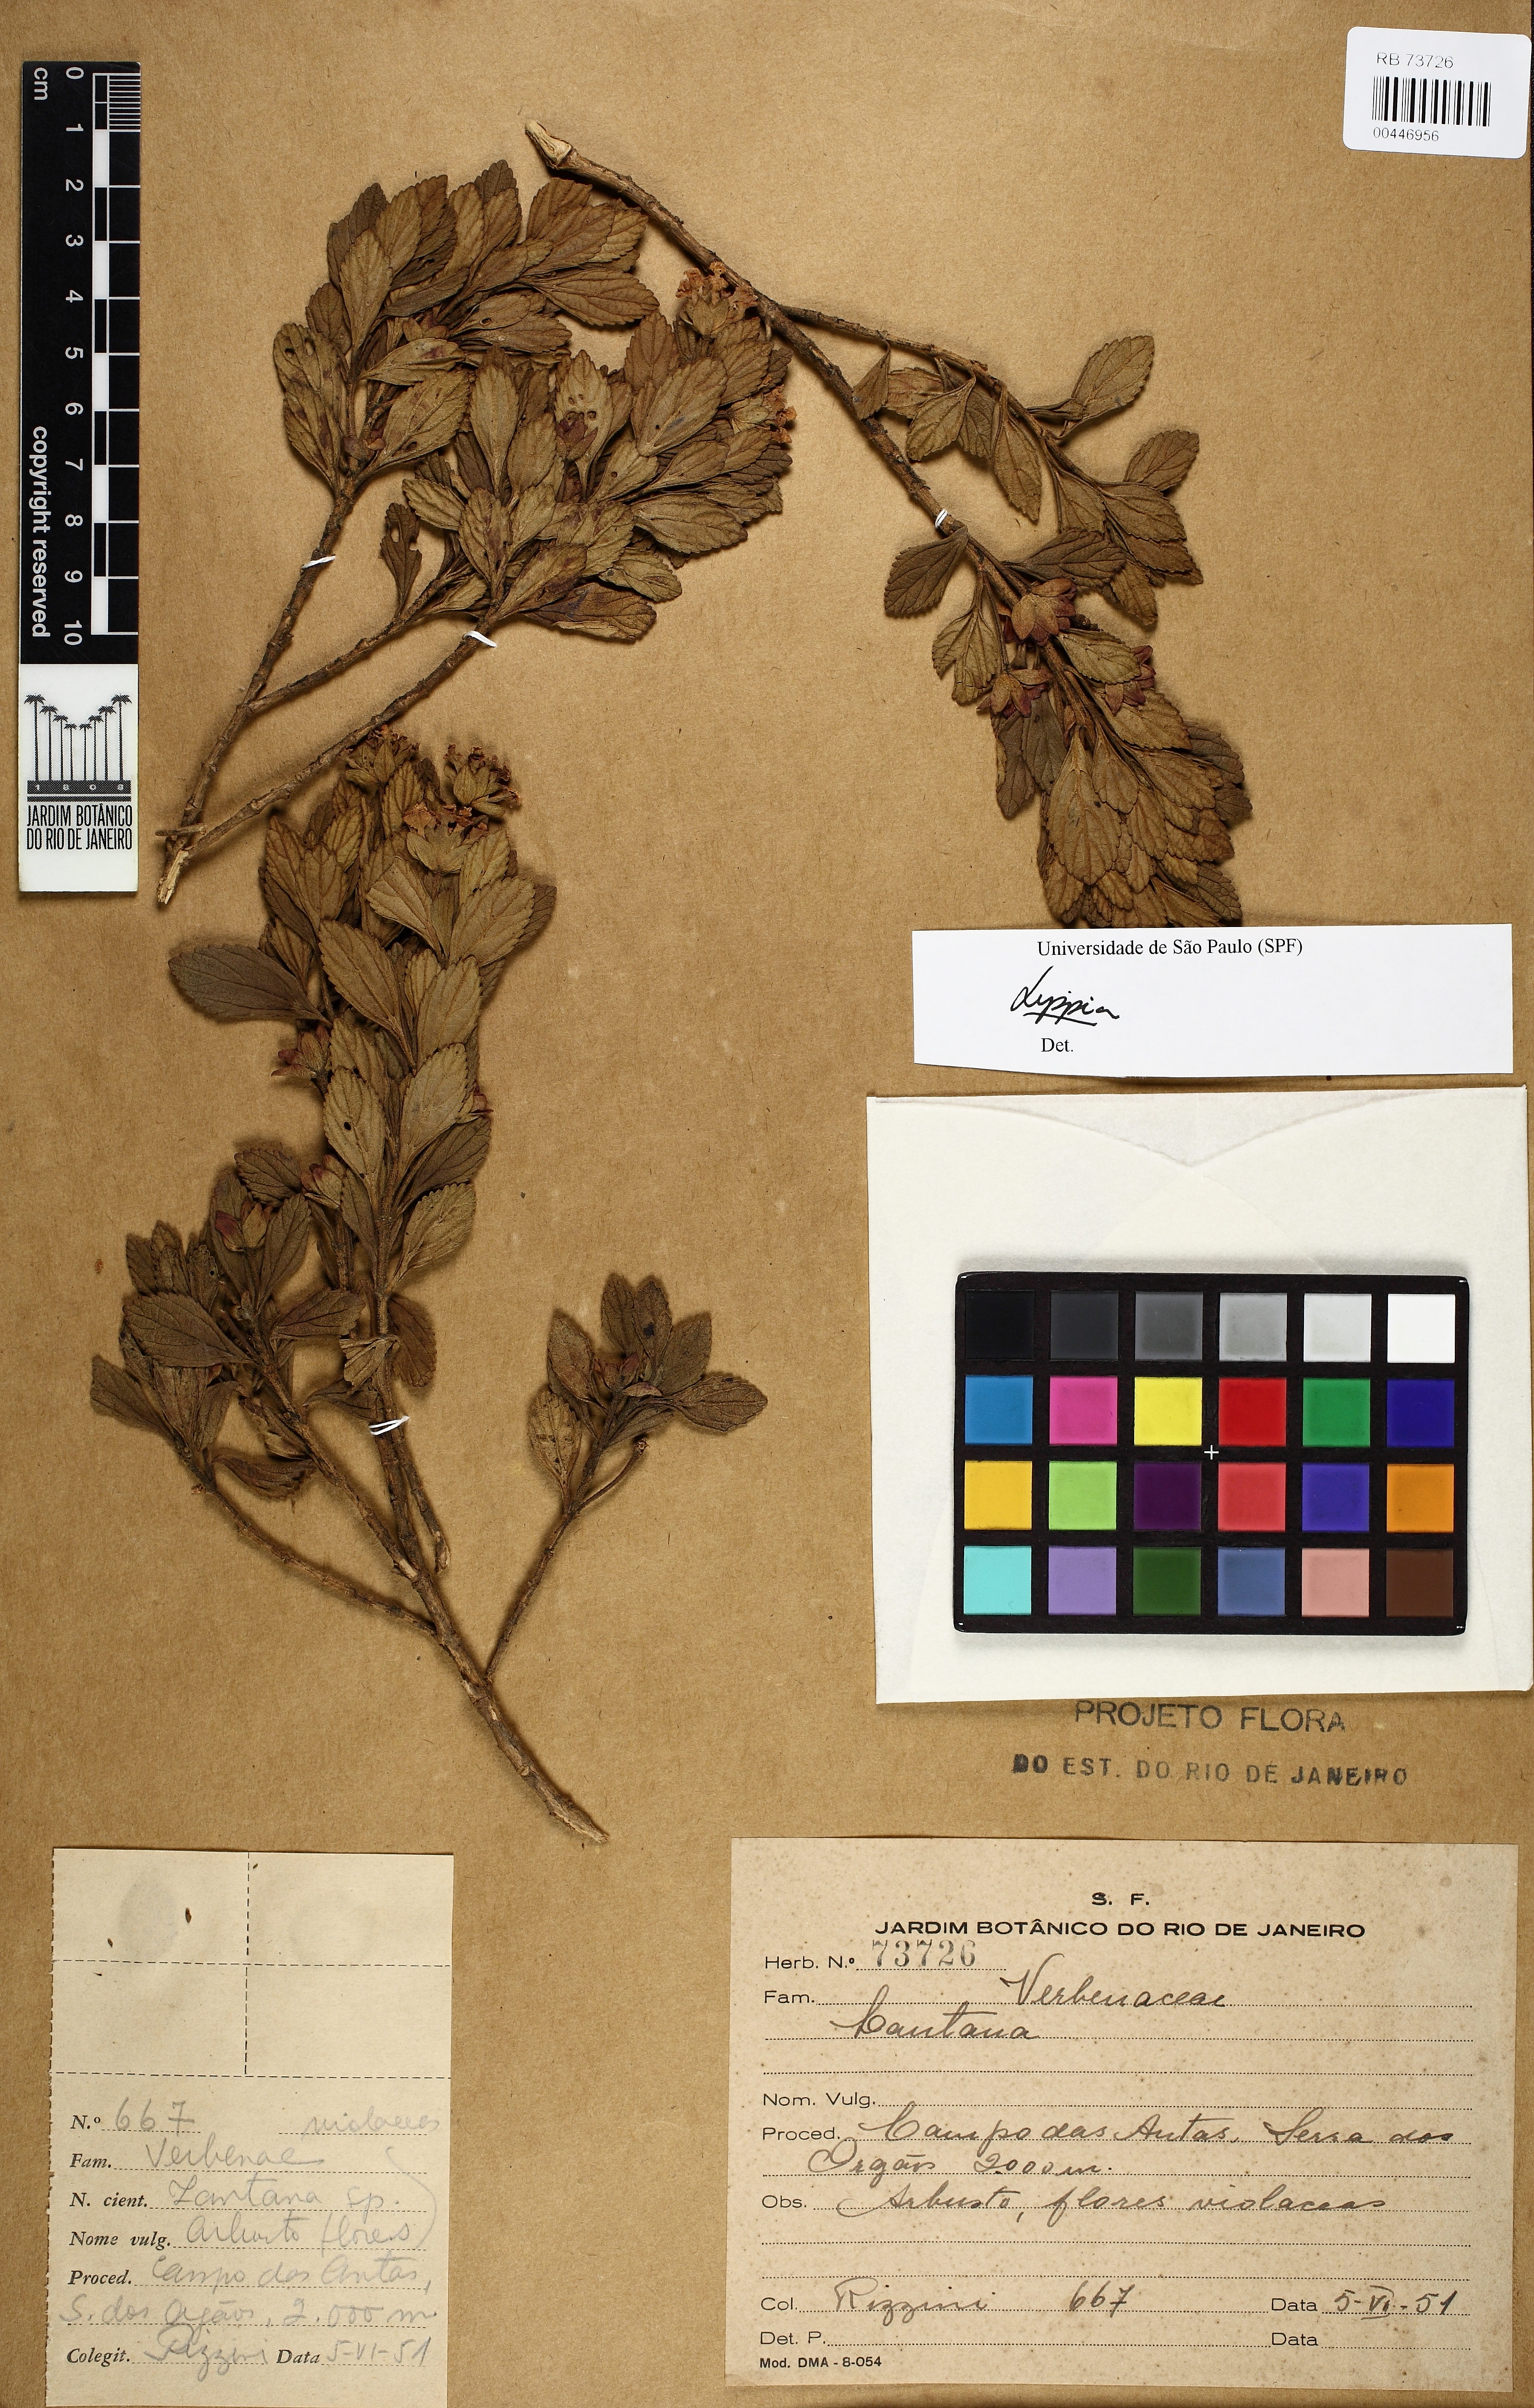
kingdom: Plantae
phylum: Tracheophyta
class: Magnoliopsida
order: Lamiales
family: Verbenaceae
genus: Lippia
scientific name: Lippia
